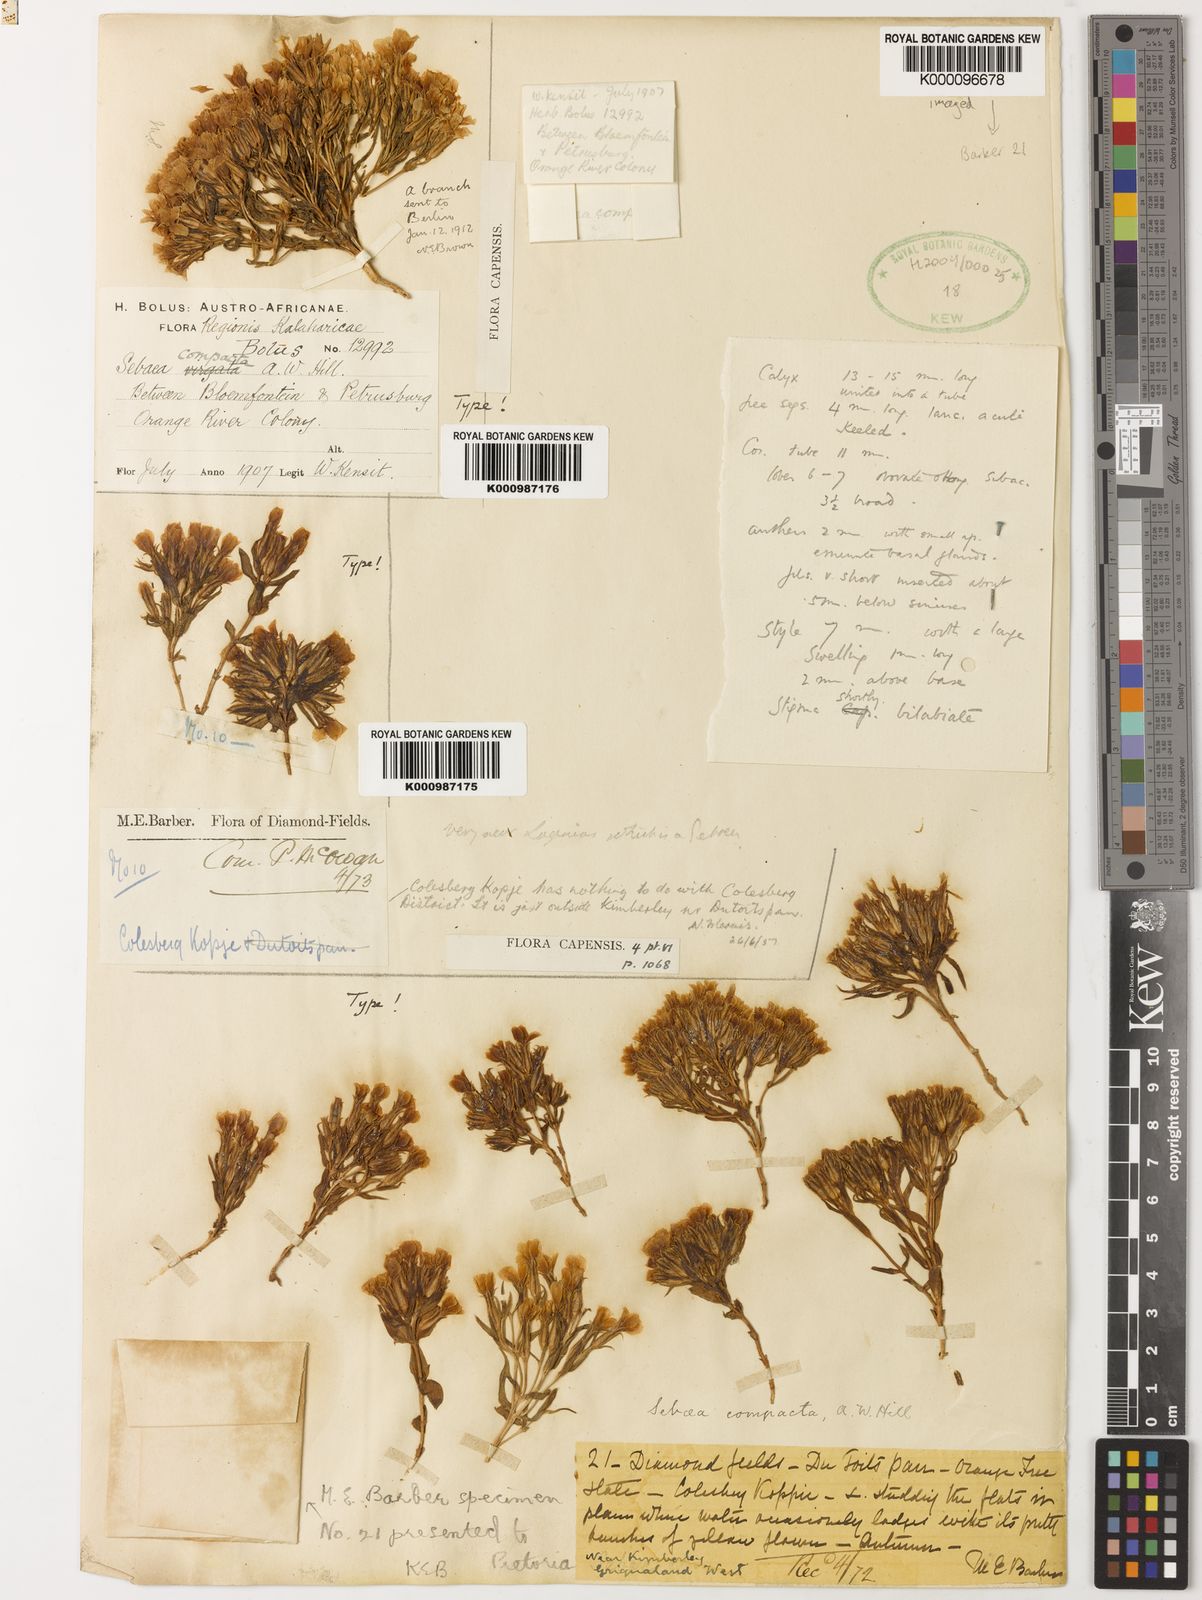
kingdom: Plantae
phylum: Tracheophyta
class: Magnoliopsida
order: Gentianales
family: Gentianaceae
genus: Sebaea
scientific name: Sebaea compacta
